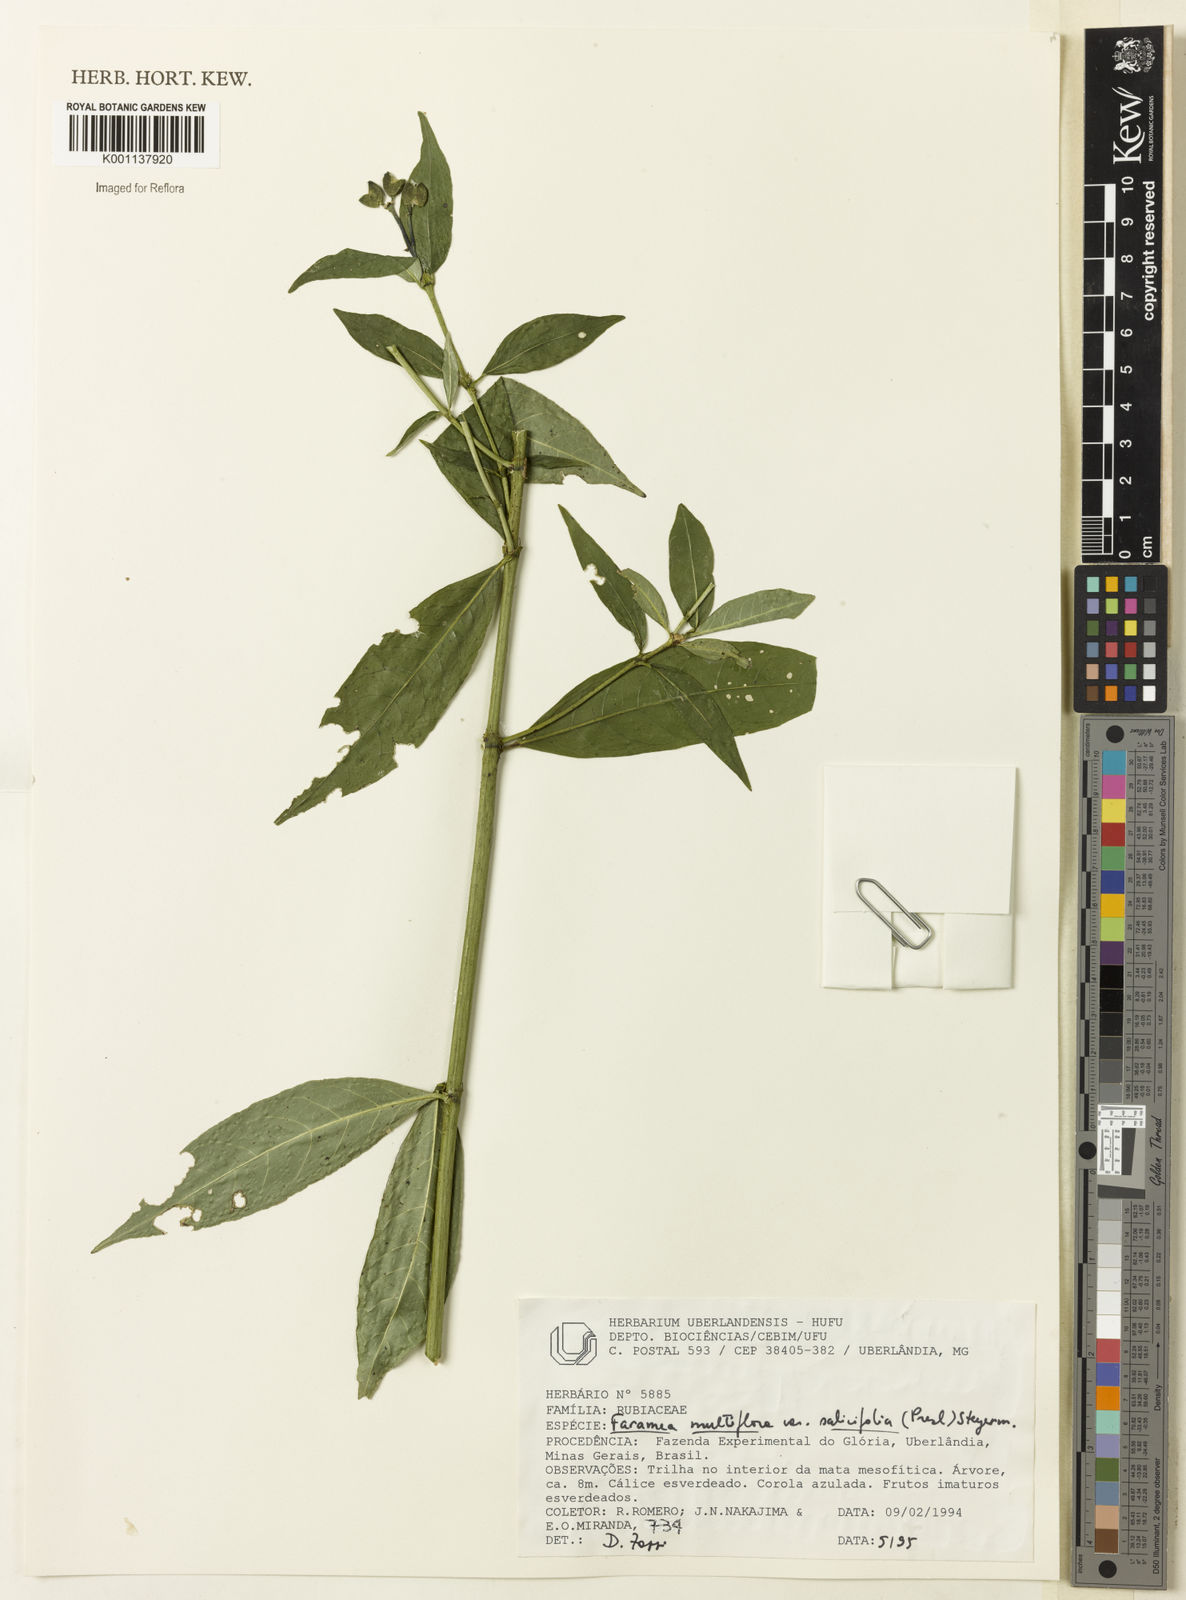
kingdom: Plantae
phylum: Tracheophyta
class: Magnoliopsida
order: Gentianales
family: Rubiaceae
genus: Faramea
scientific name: Faramea multiflora
